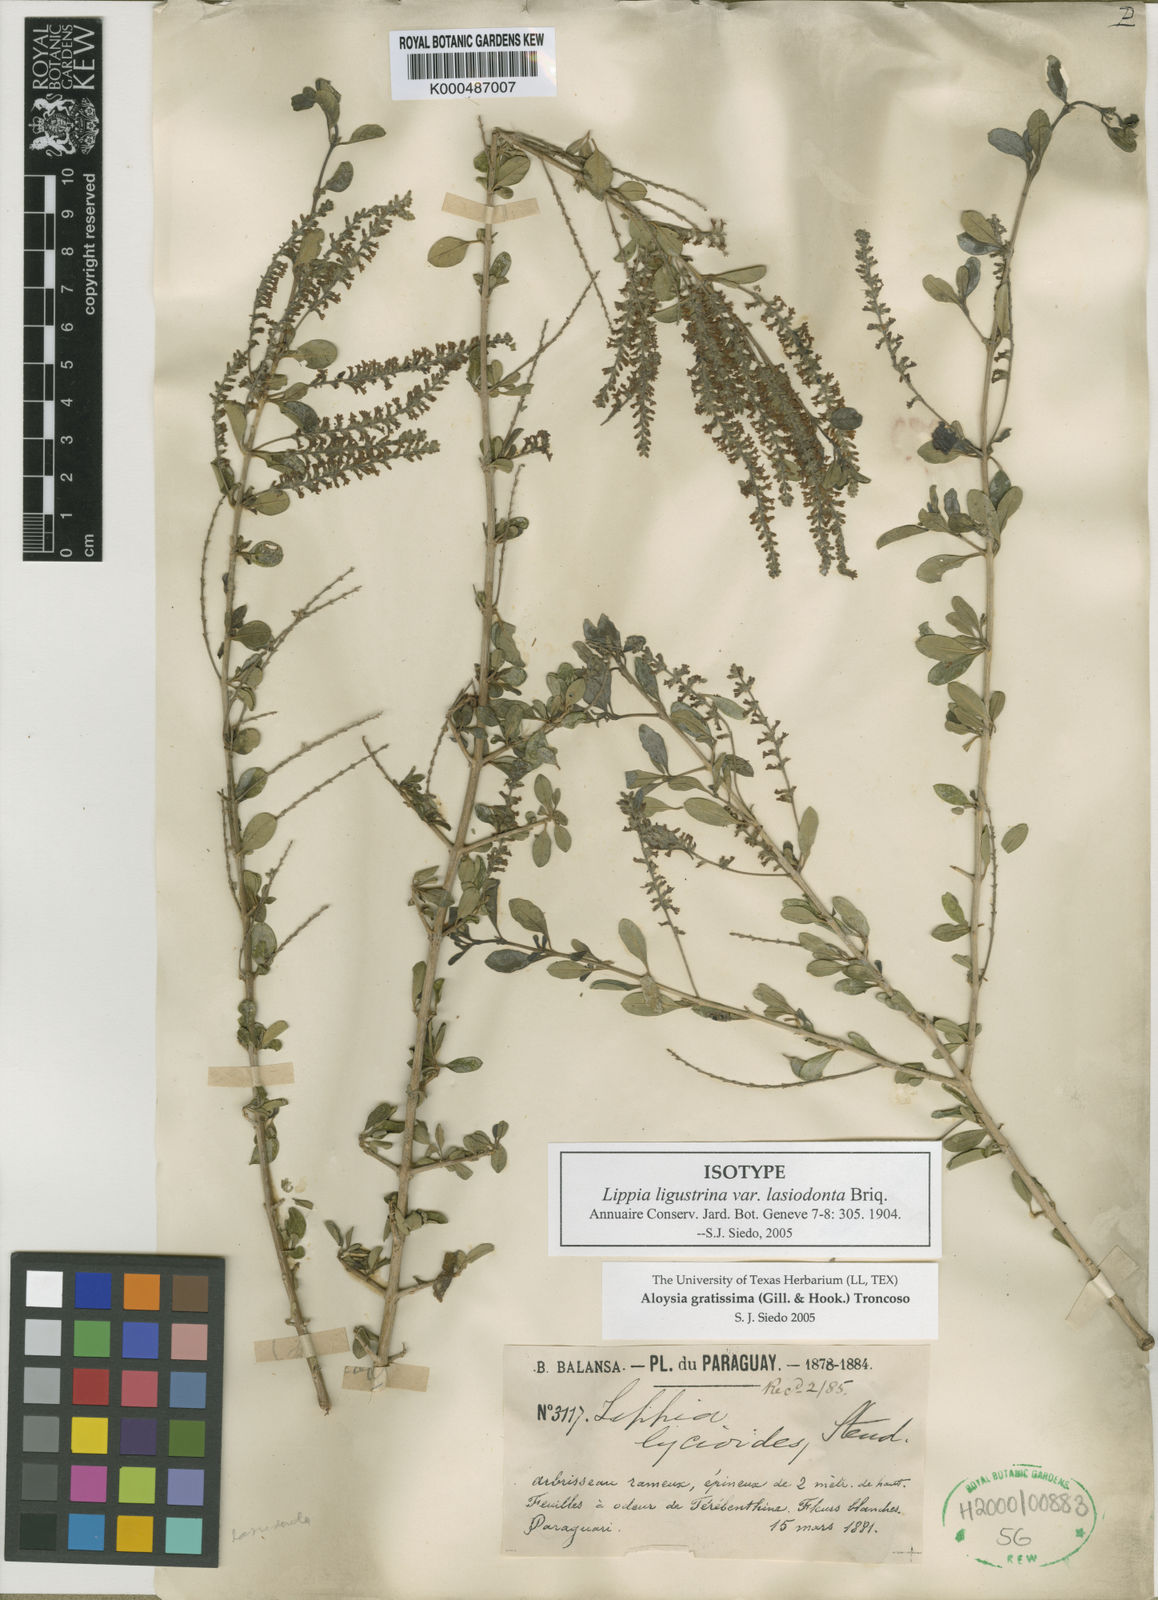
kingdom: Plantae
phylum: Tracheophyta
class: Magnoliopsida
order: Lamiales
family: Verbenaceae
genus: Aloysia
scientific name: Aloysia gratissima
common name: Common bee-brush
